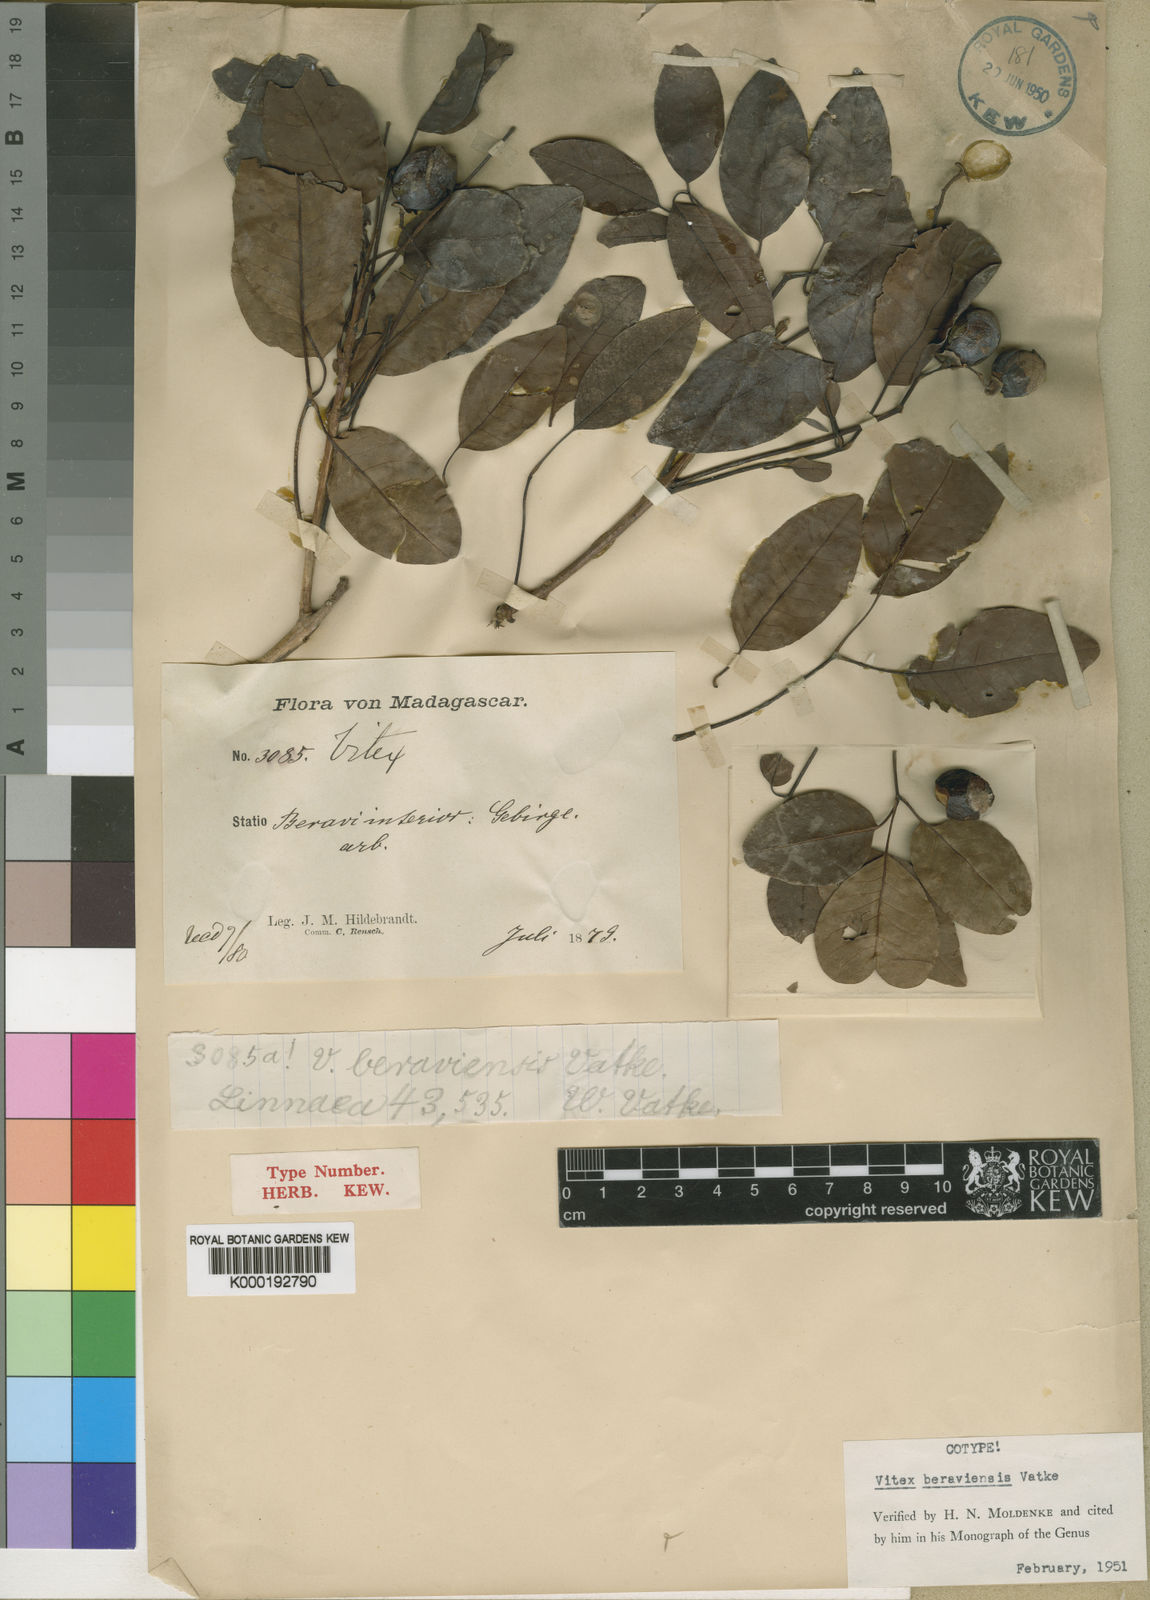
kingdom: Plantae
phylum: Tracheophyta
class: Magnoliopsida
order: Lamiales
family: Lamiaceae
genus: Vitex
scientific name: Vitex beraviensis
